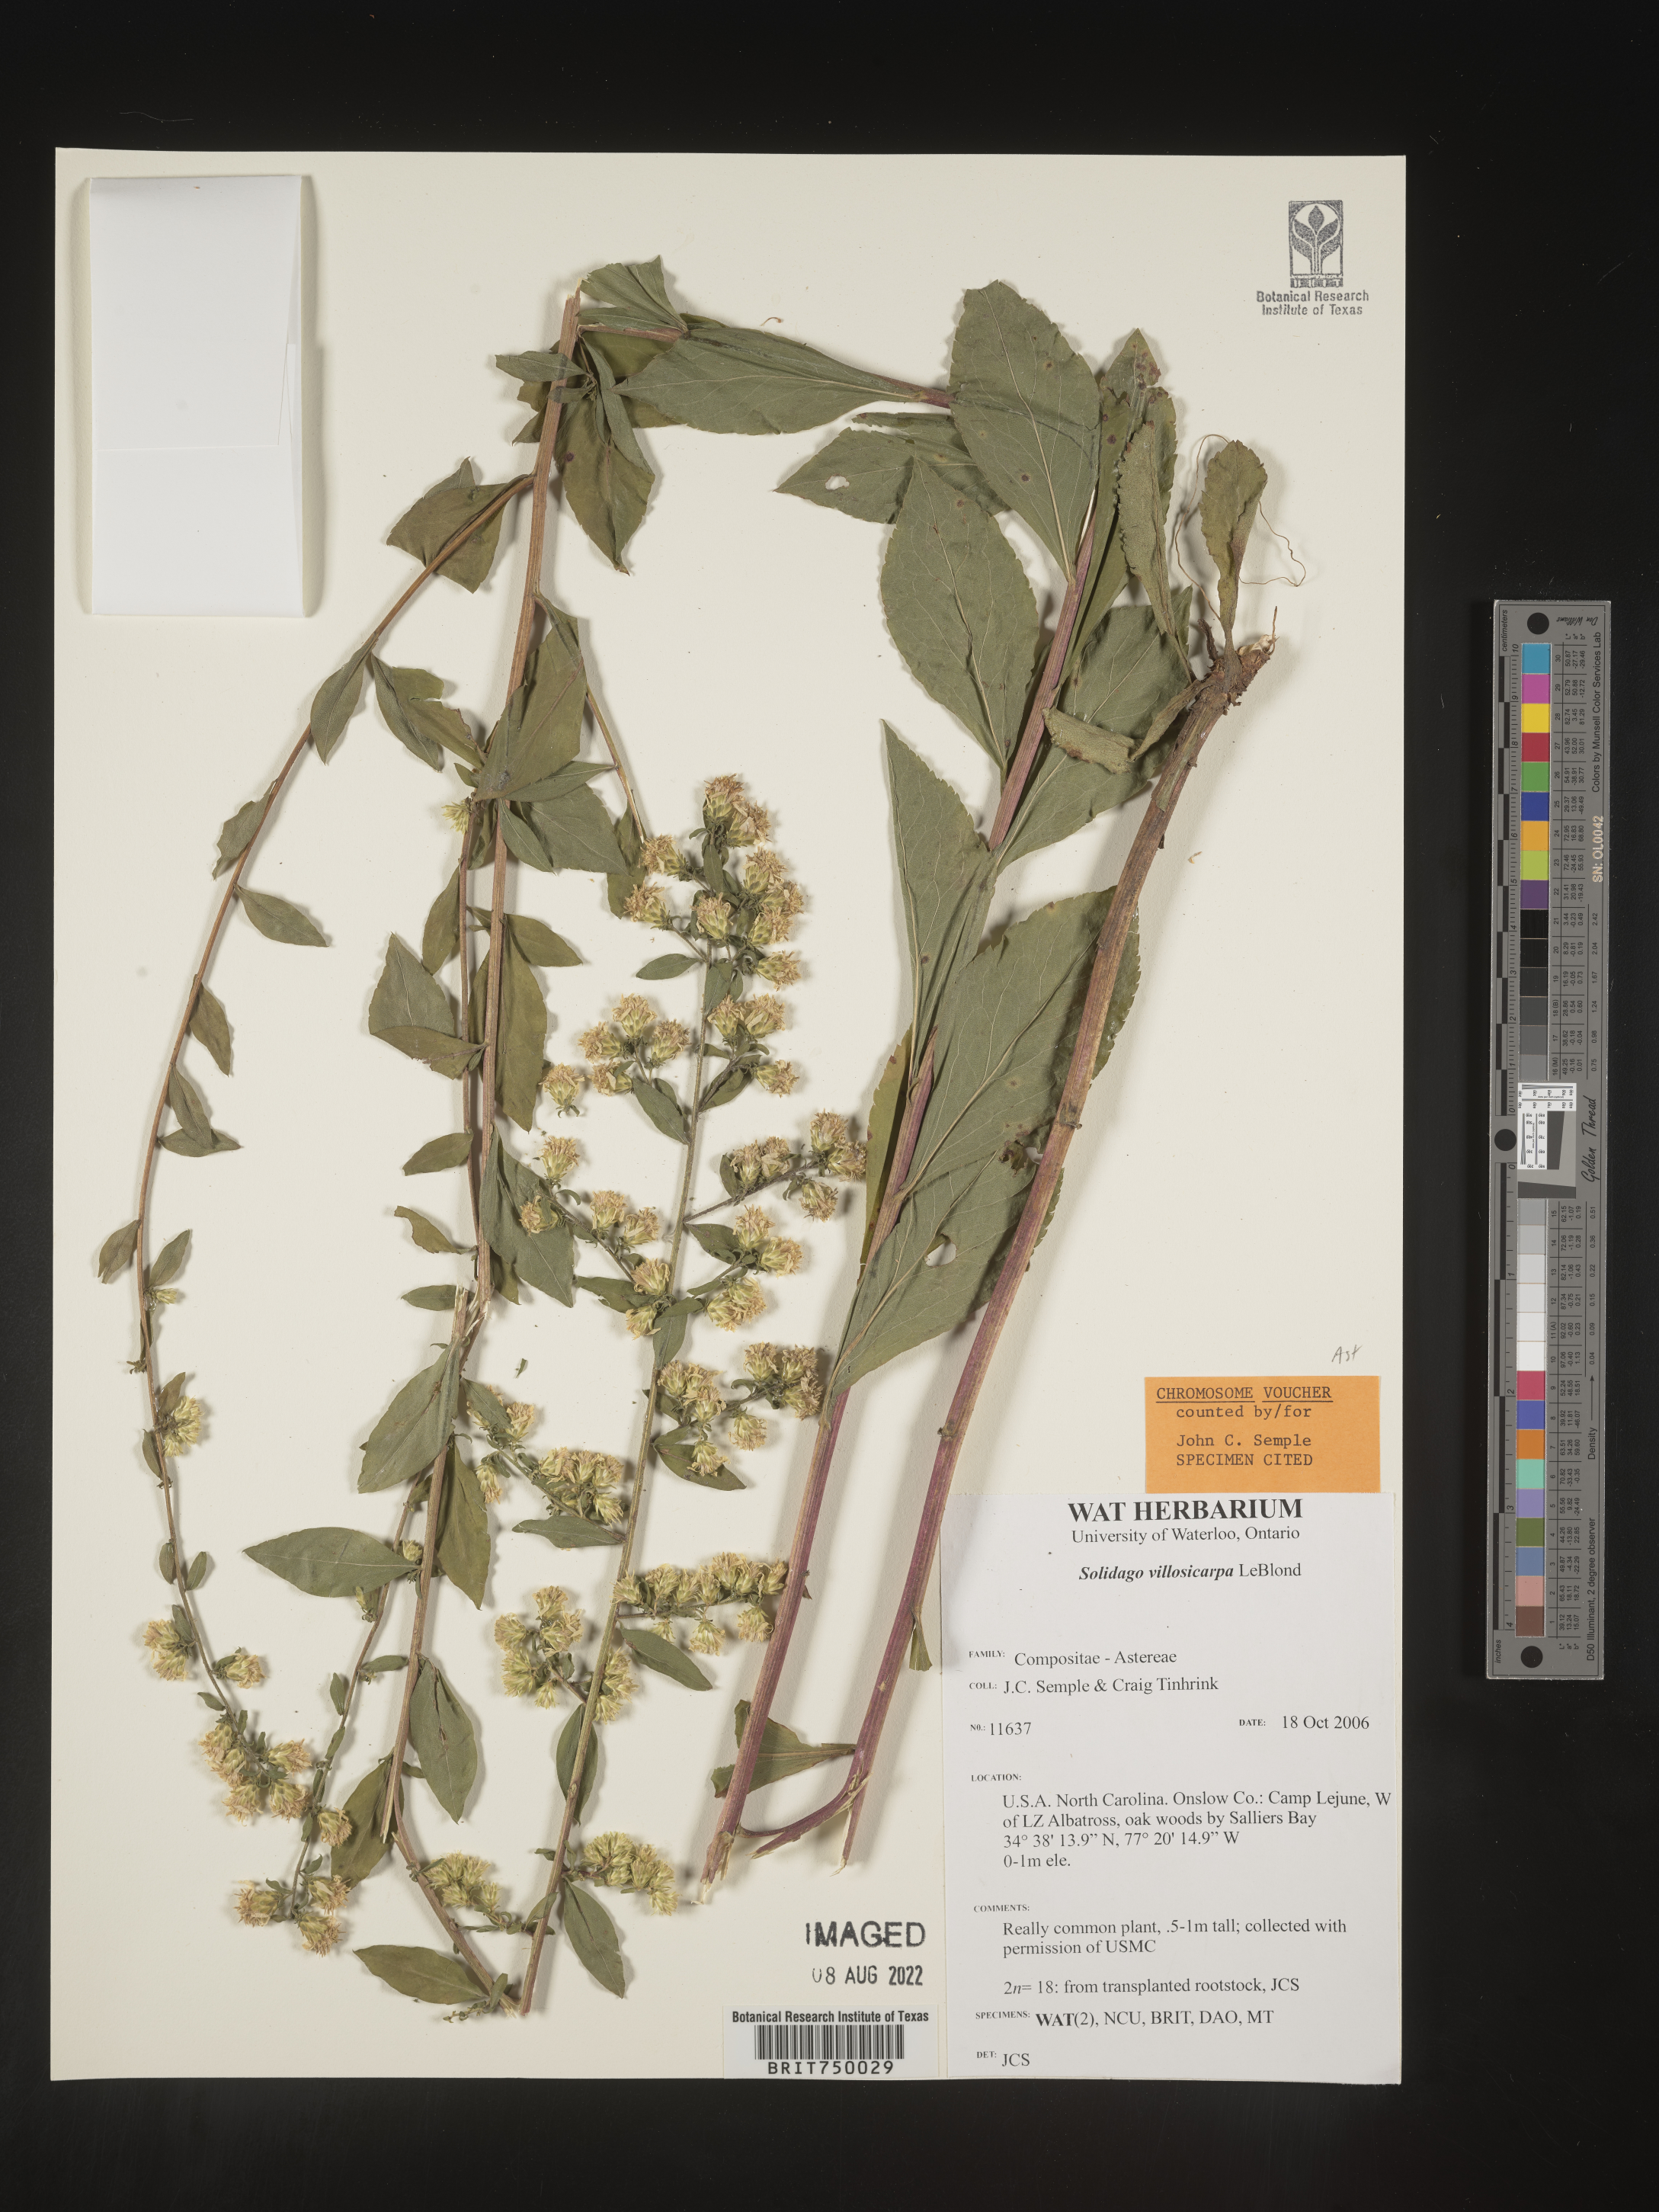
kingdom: Plantae
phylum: Tracheophyta
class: Magnoliopsida
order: Asterales
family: Asteraceae
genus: Solidago
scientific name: Solidago villosicarpa
